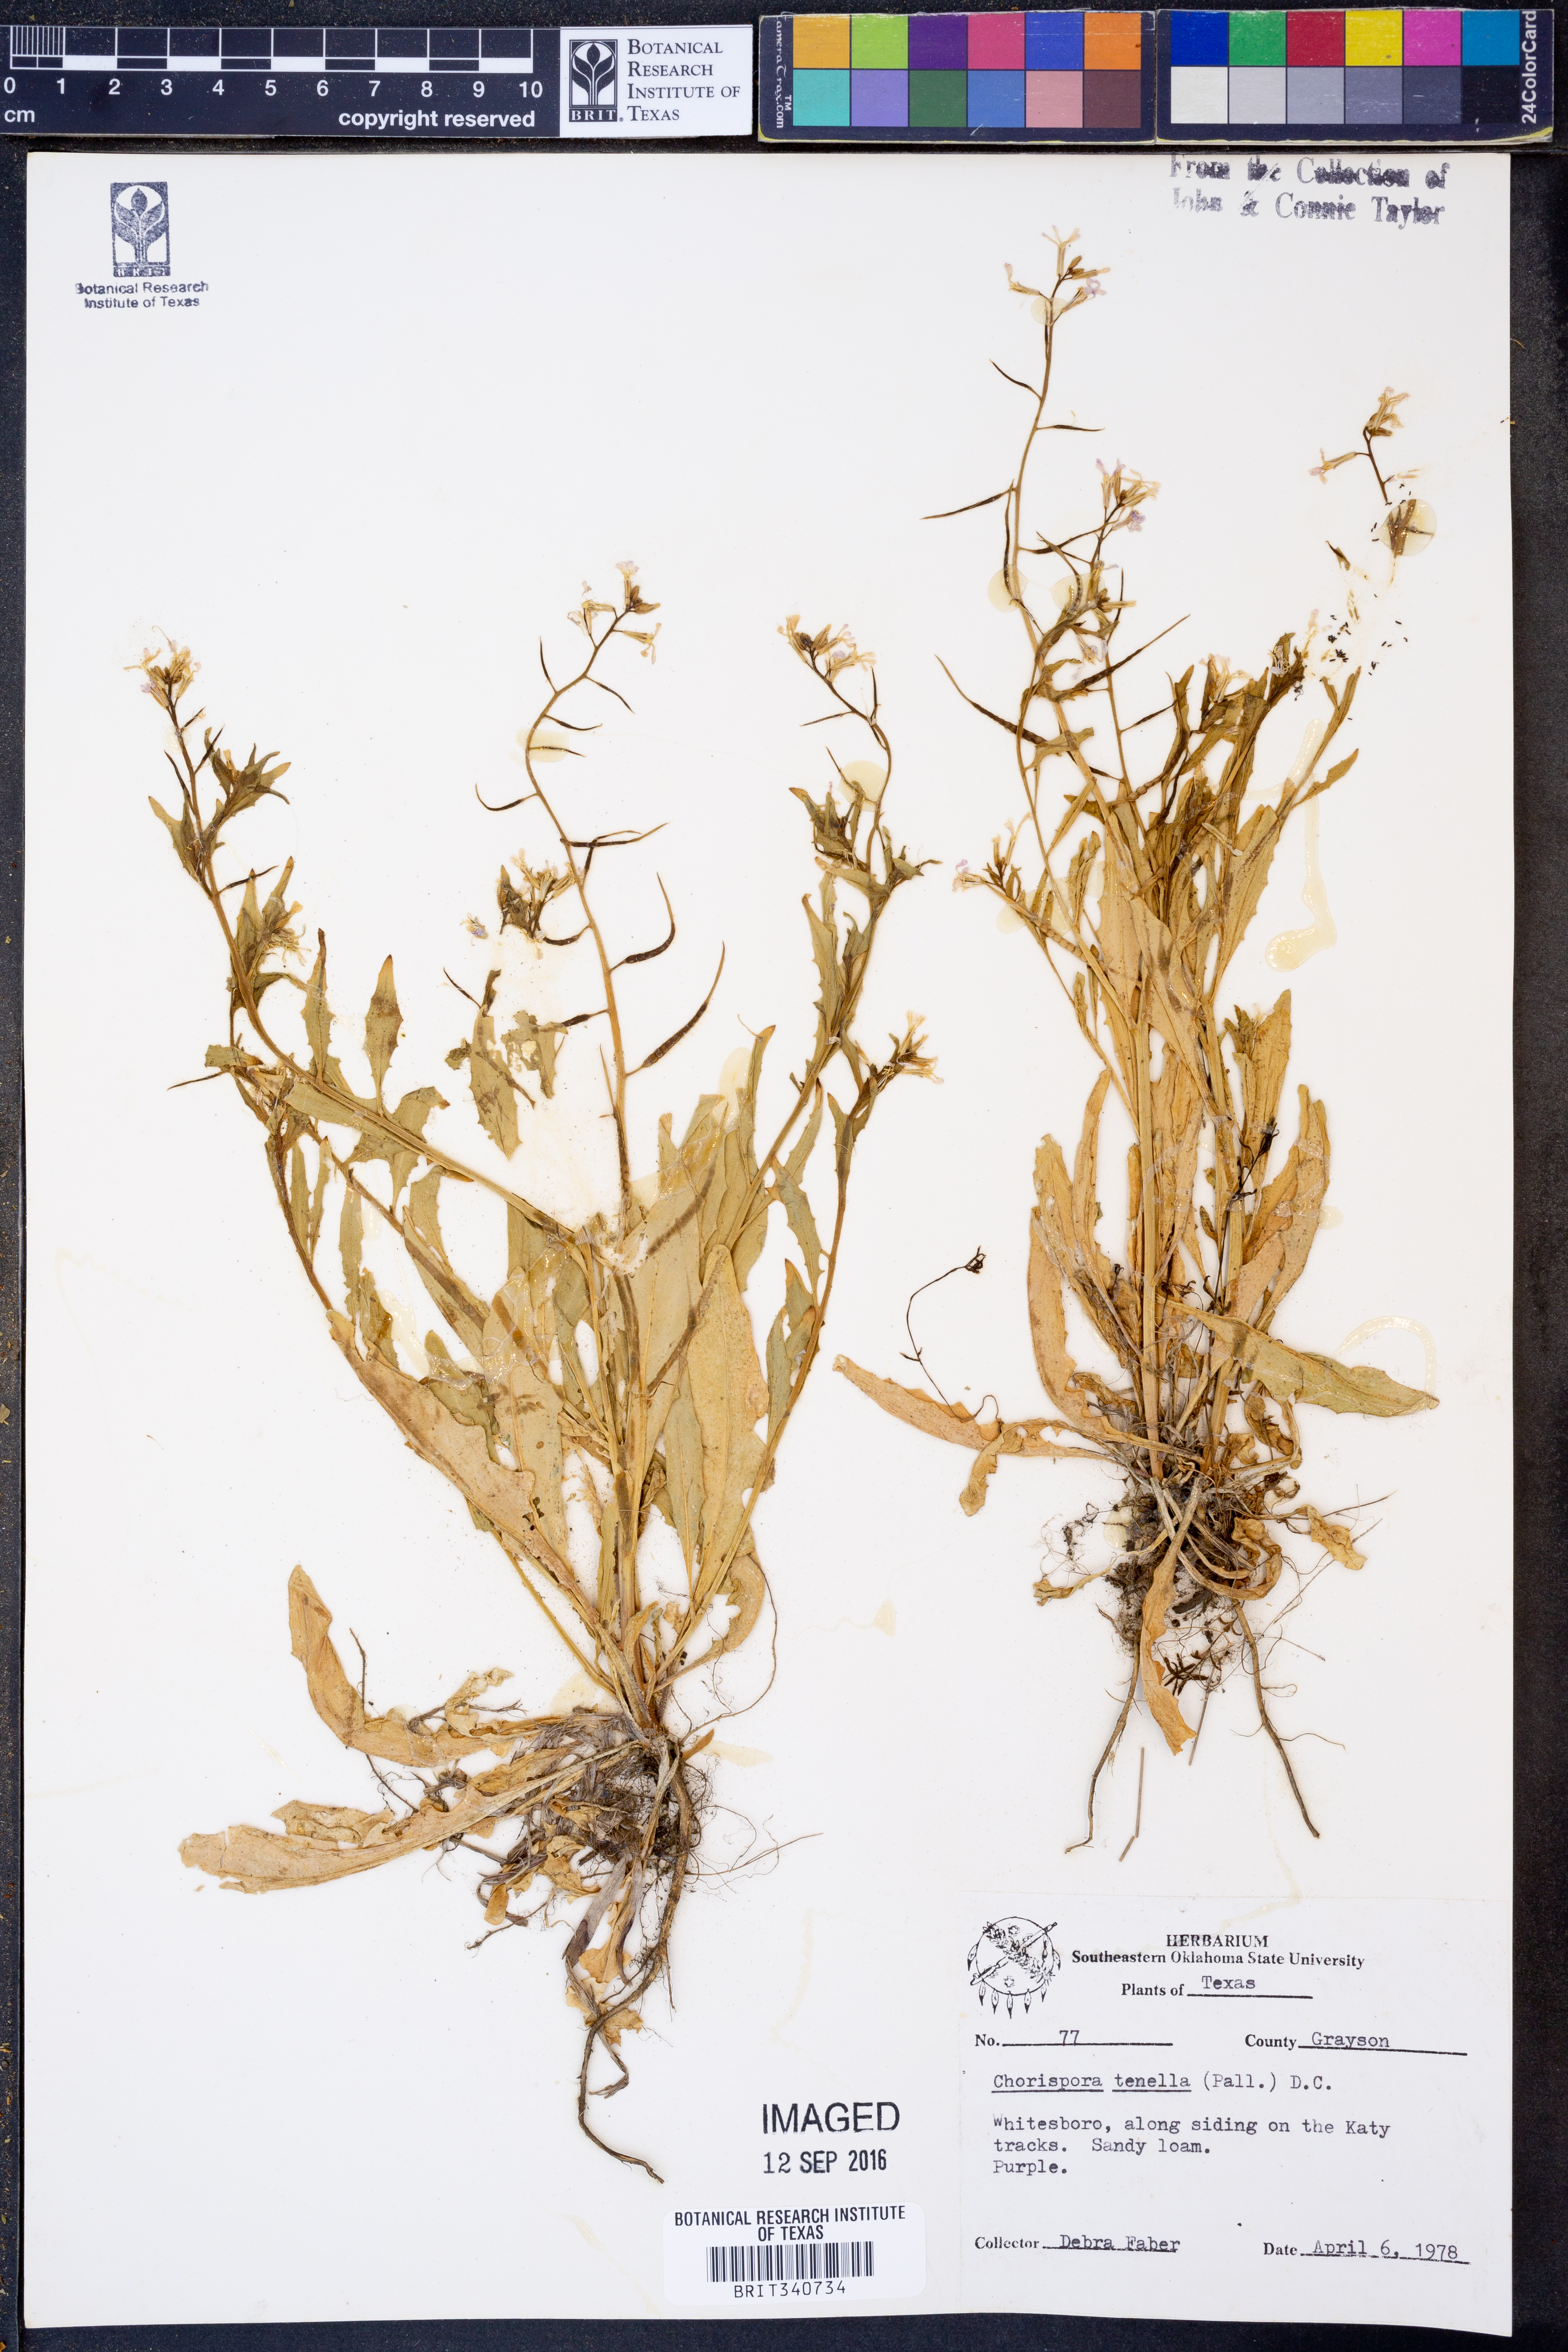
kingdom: Plantae
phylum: Tracheophyta
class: Magnoliopsida
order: Brassicales
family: Brassicaceae
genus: Chorispora
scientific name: Chorispora tenella
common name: Crossflower
